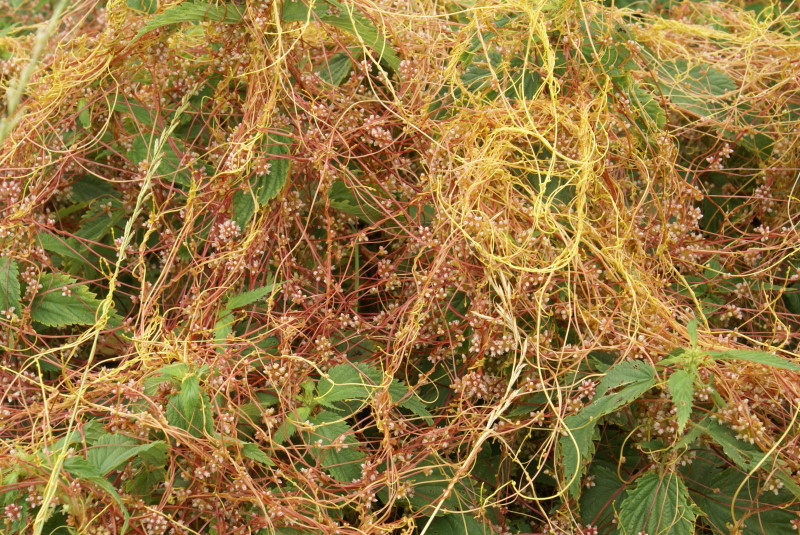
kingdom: Plantae
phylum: Tracheophyta
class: Magnoliopsida
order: Solanales
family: Convolvulaceae
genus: Cuscuta
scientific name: Cuscuta europaea
